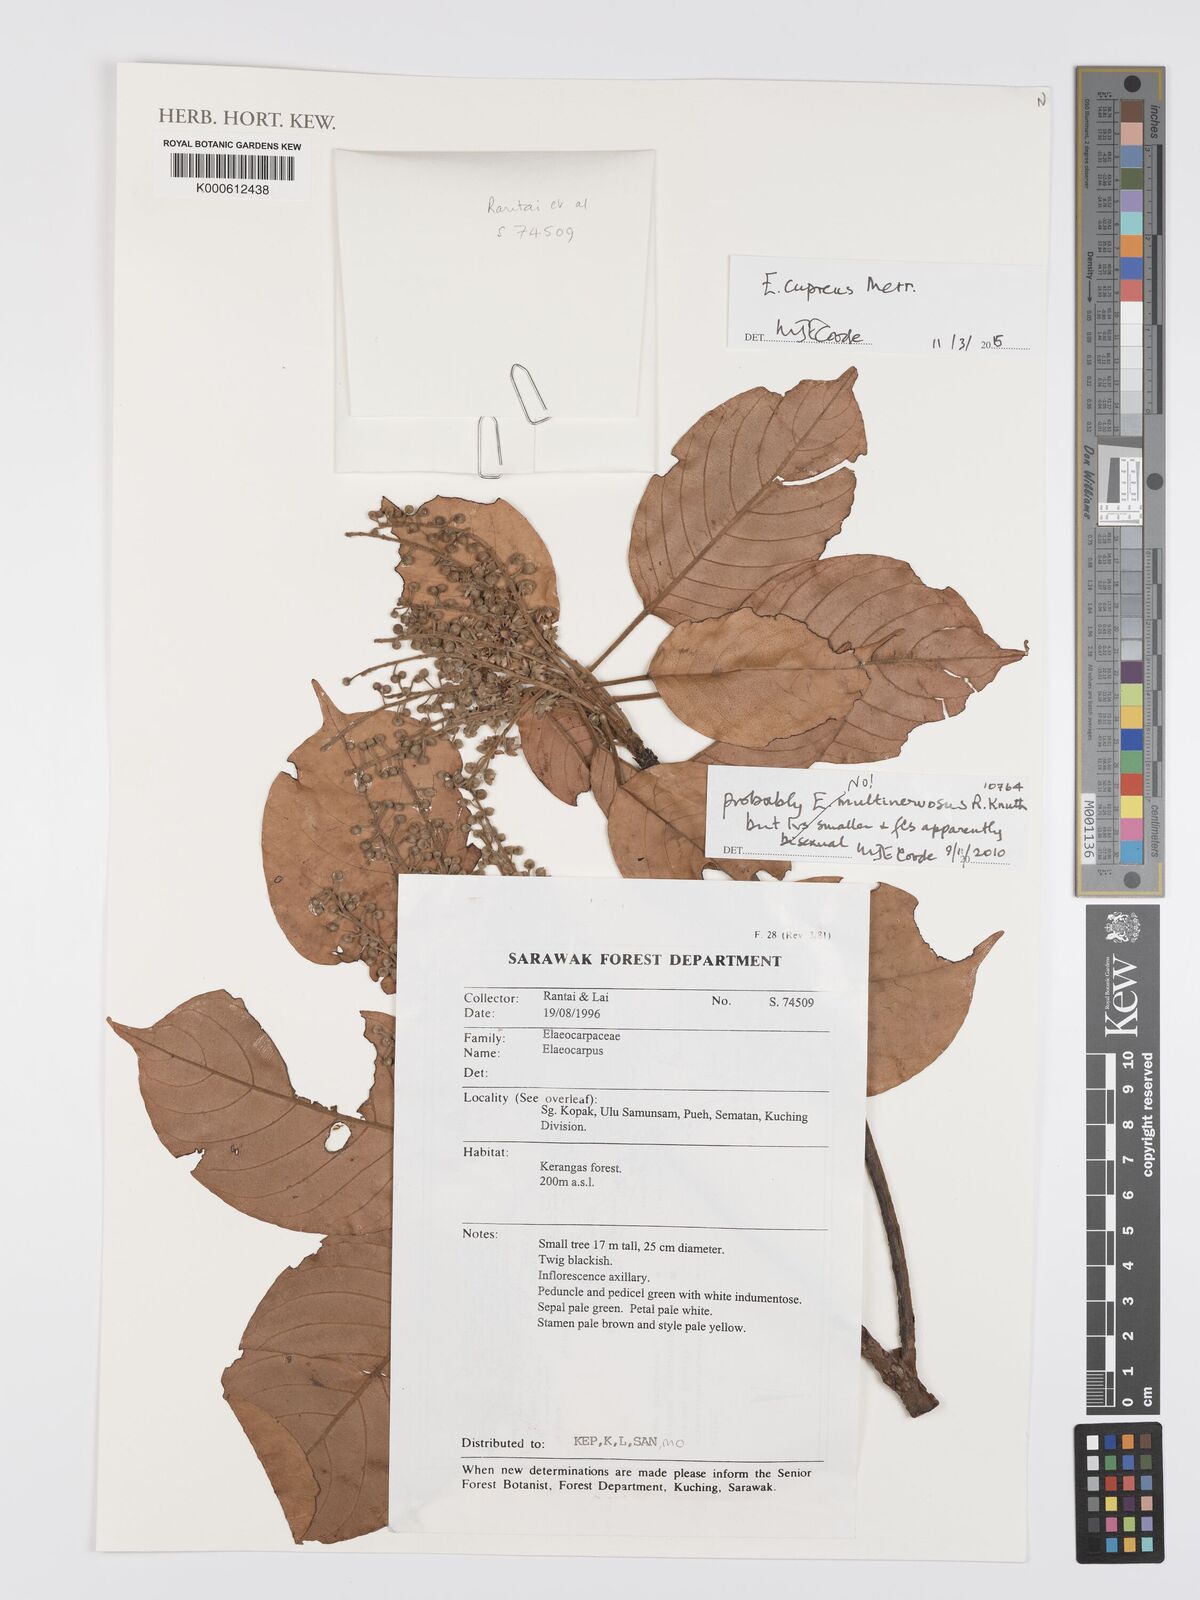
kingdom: Plantae
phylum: Tracheophyta
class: Magnoliopsida
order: Oxalidales
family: Elaeocarpaceae
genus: Elaeocarpus
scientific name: Elaeocarpus multinervosus
